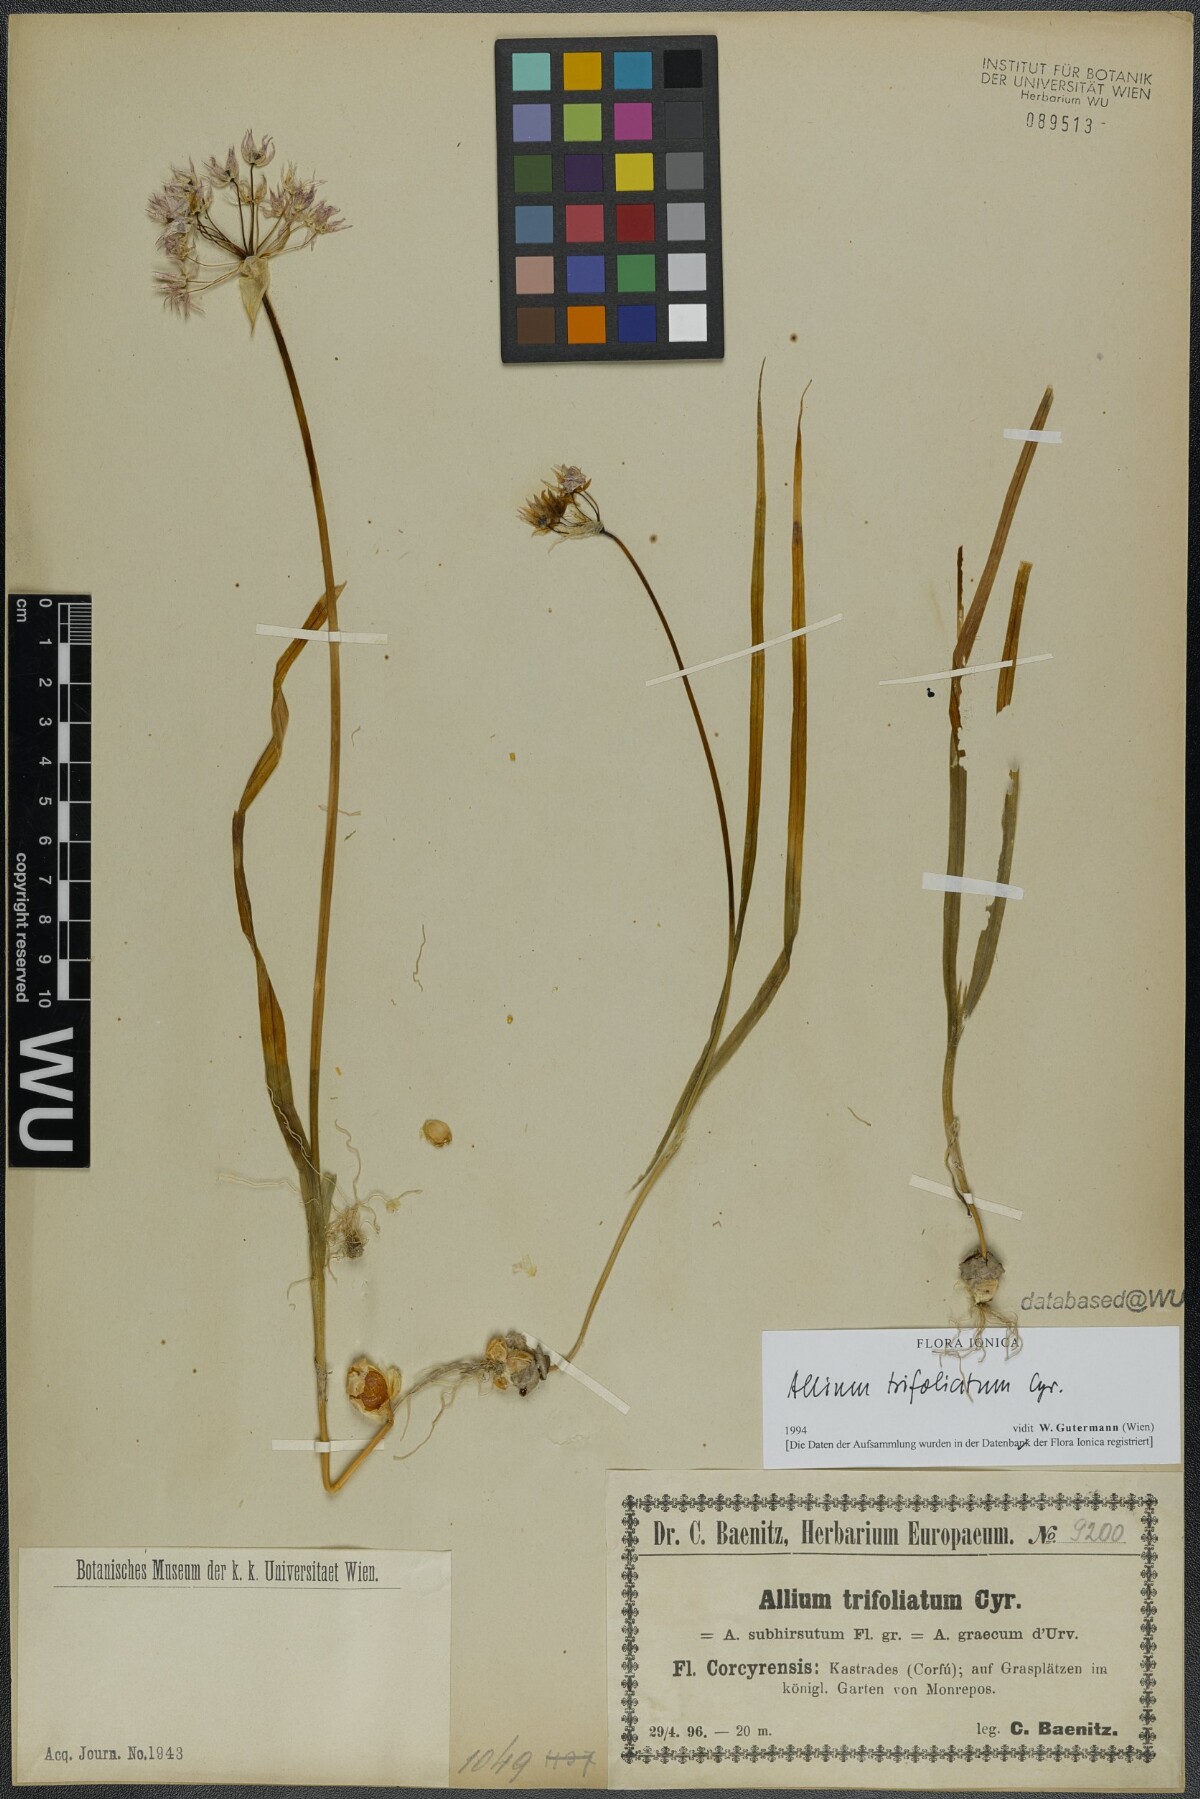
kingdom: Plantae
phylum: Tracheophyta
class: Liliopsida
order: Asparagales
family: Amaryllidaceae
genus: Allium
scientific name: Allium trifoliatum
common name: Pink garlic
